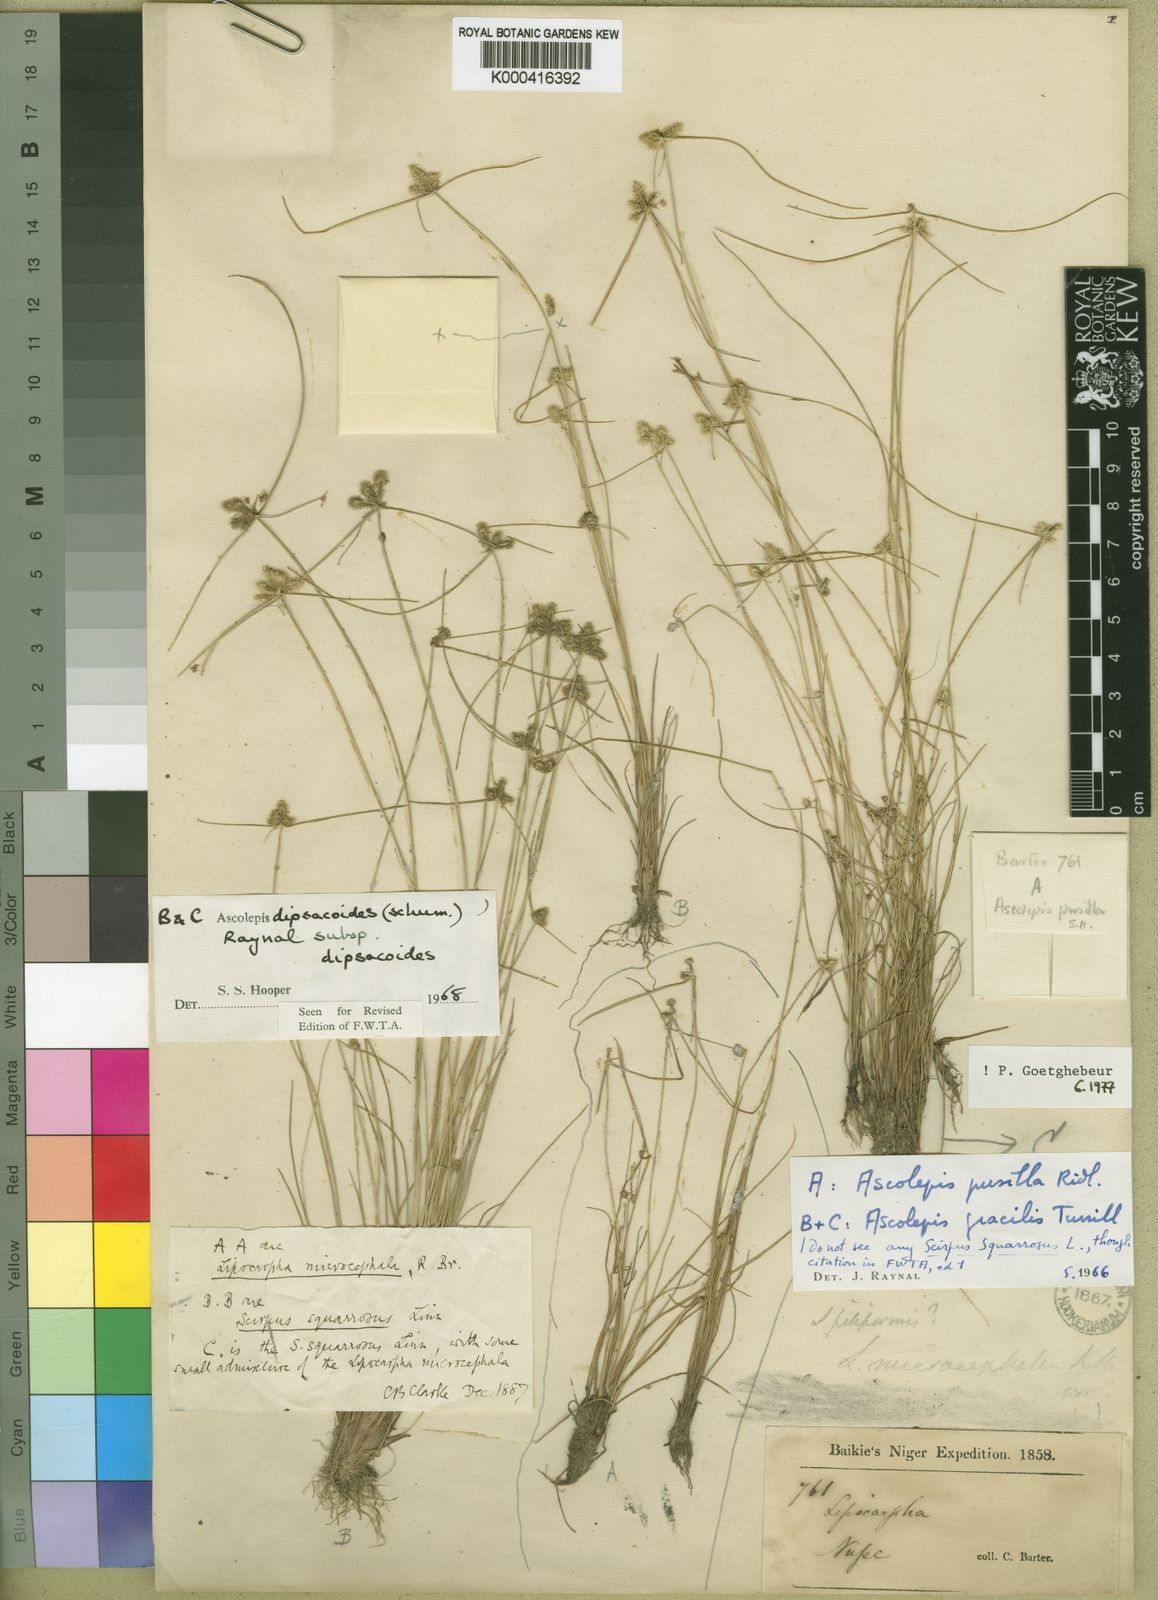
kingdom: Plantae
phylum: Tracheophyta
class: Liliopsida
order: Poales
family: Cyperaceae
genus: Cyperus
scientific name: Cyperus dipsacoides
